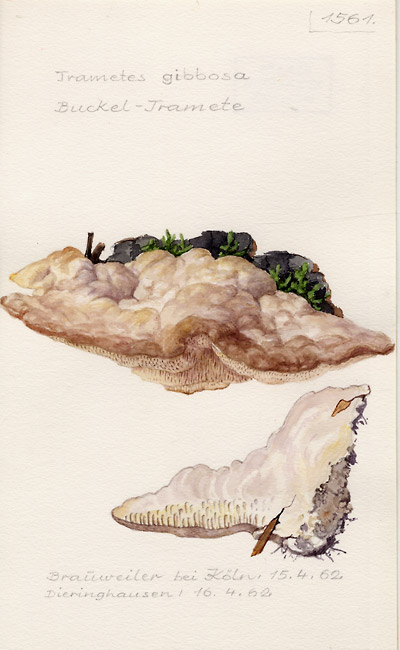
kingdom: Fungi
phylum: Basidiomycota
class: Agaricomycetes
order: Polyporales
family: Polyporaceae
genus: Trametes
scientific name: Trametes gibbosa
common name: Lumpy bracket
